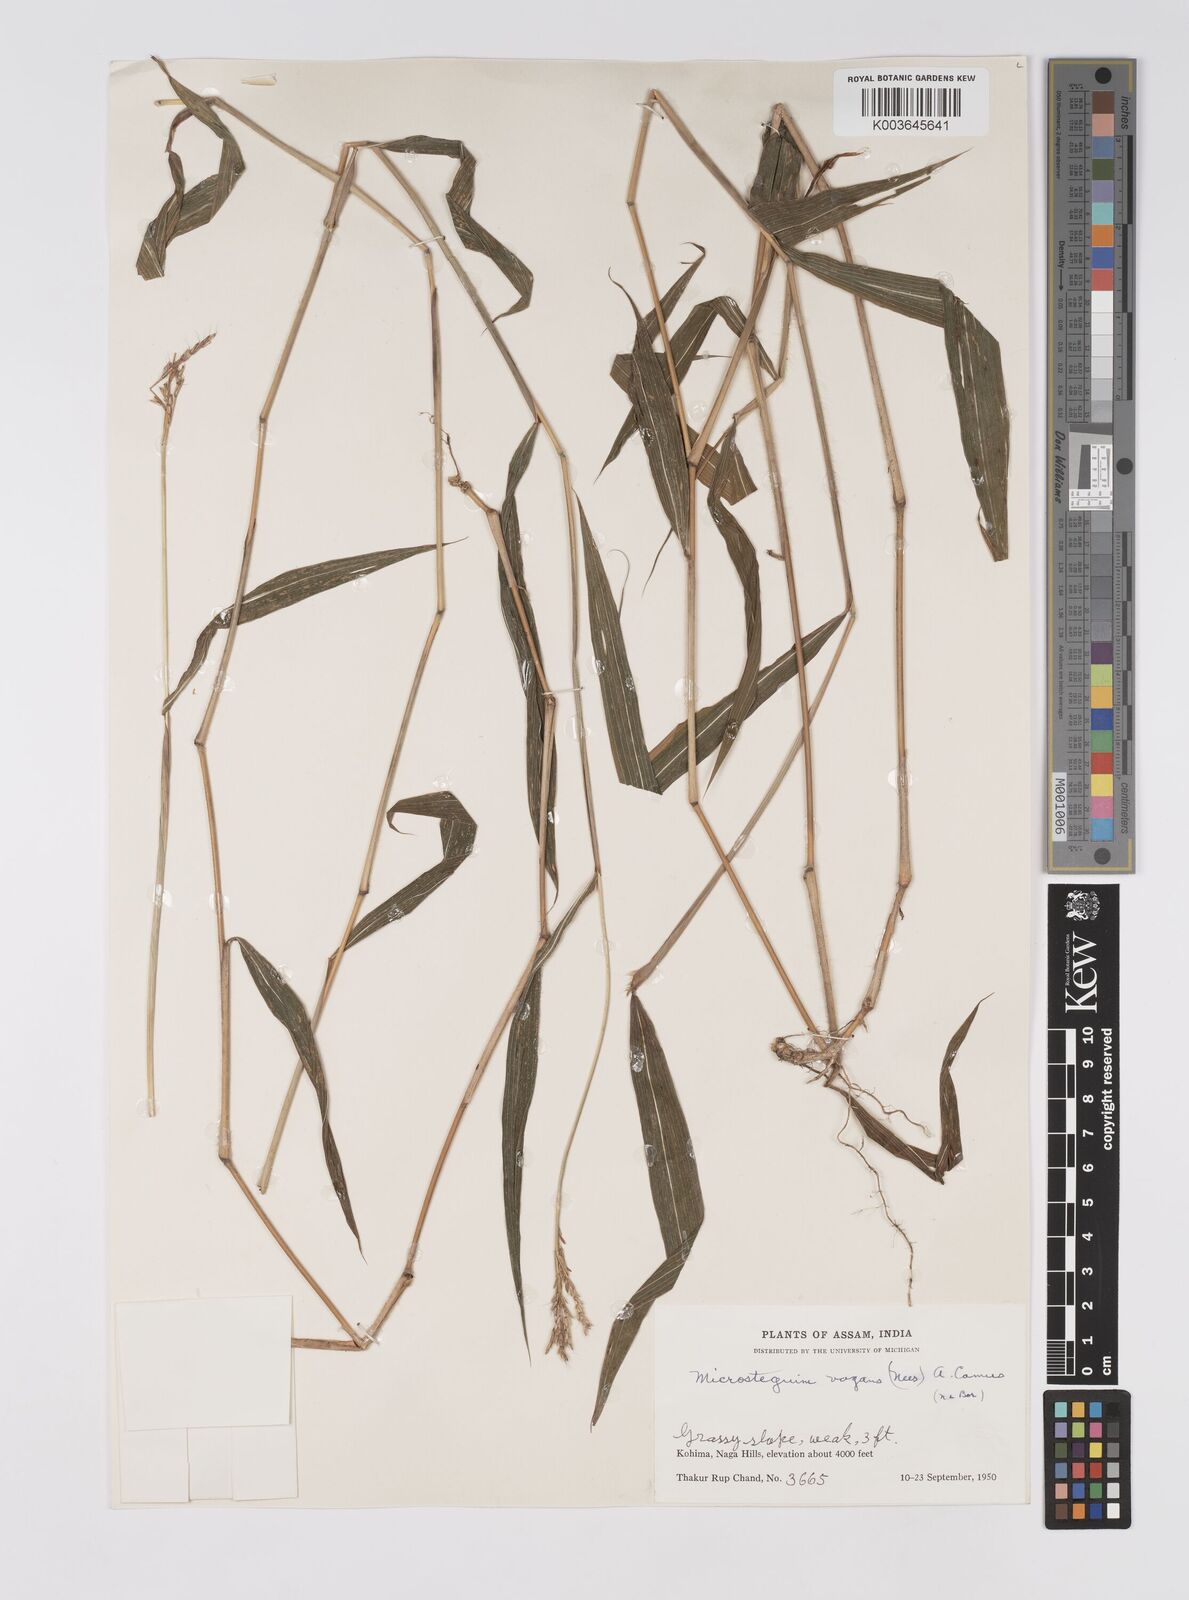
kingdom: Plantae
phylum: Tracheophyta
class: Liliopsida
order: Poales
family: Poaceae
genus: Microstegium
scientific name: Microstegium fasciculatum
